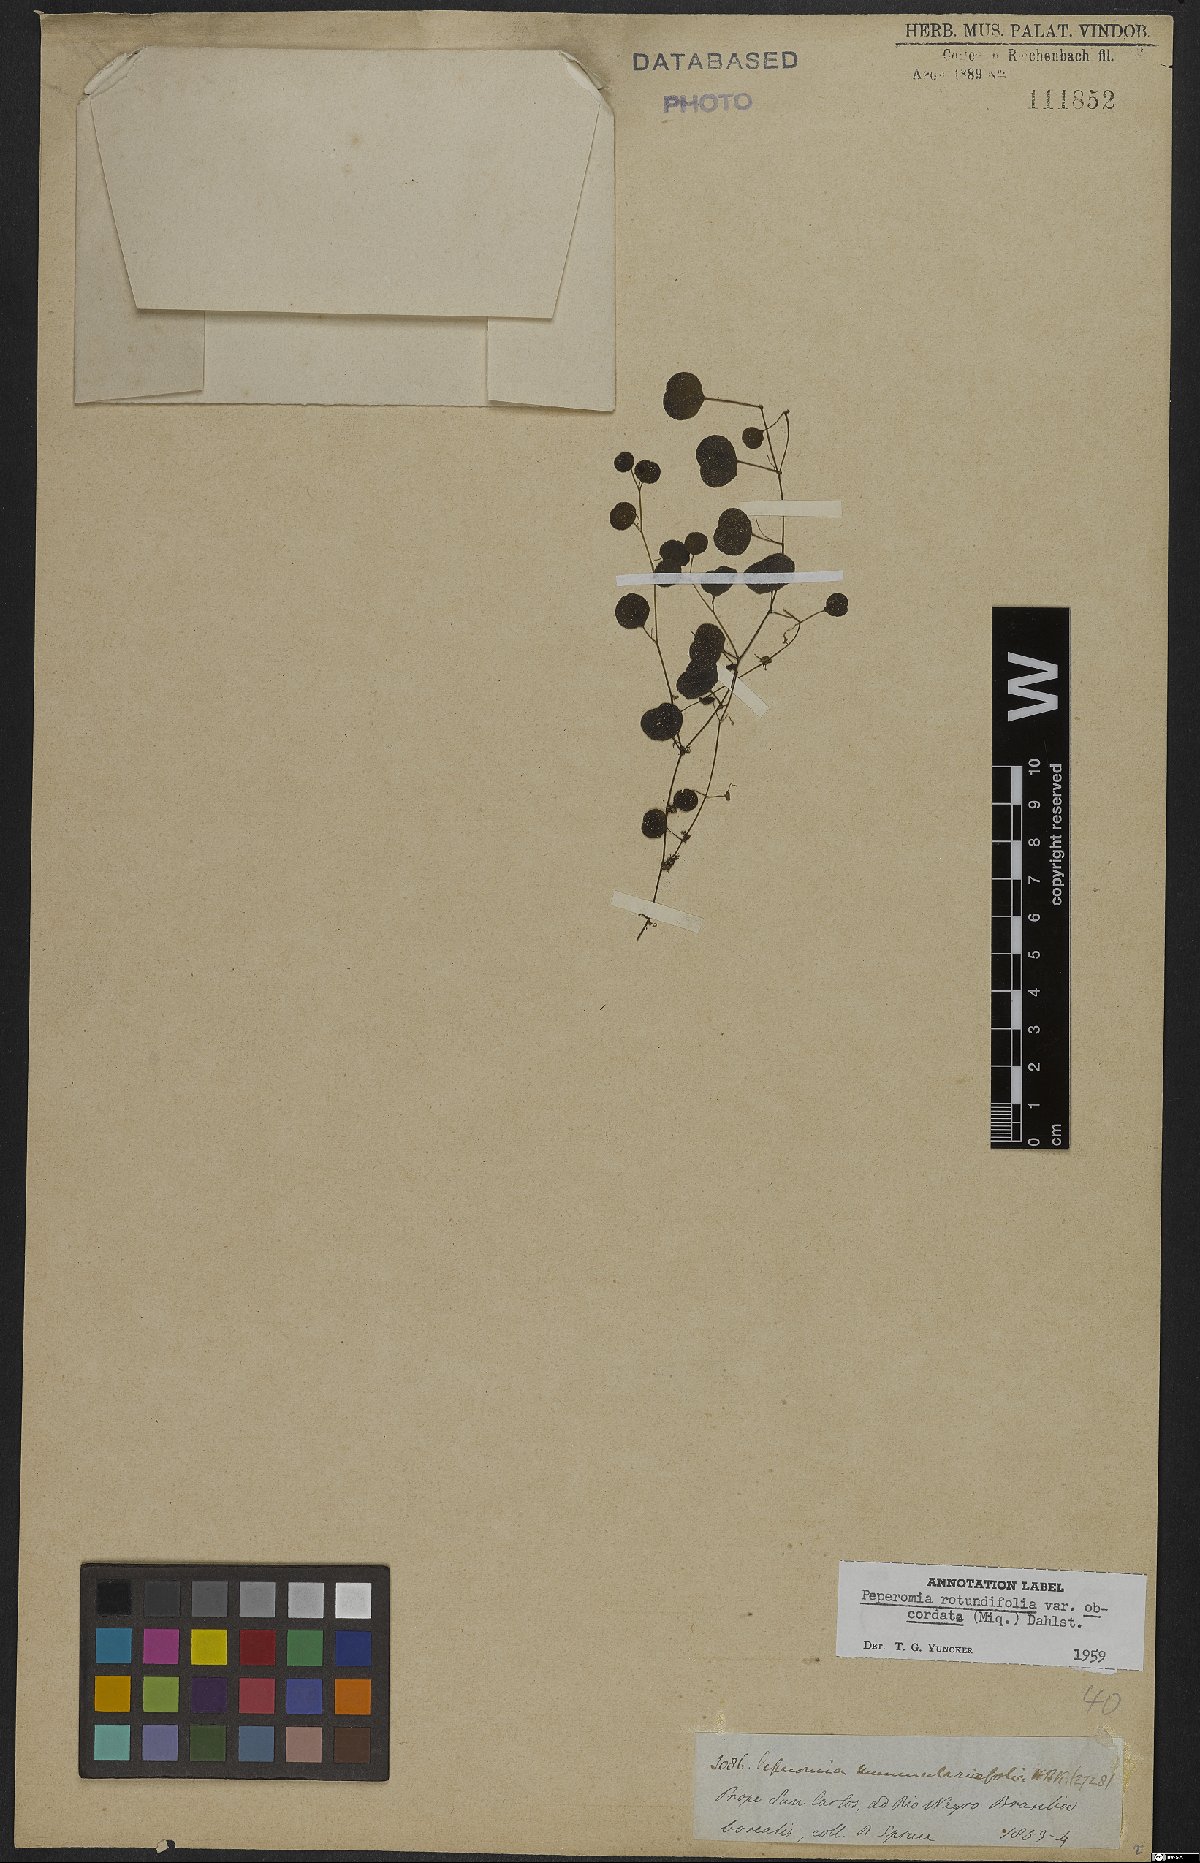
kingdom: Plantae
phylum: Tracheophyta
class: Magnoliopsida
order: Piperales
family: Piperaceae
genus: Peperomia
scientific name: Peperomia rotundifolia
